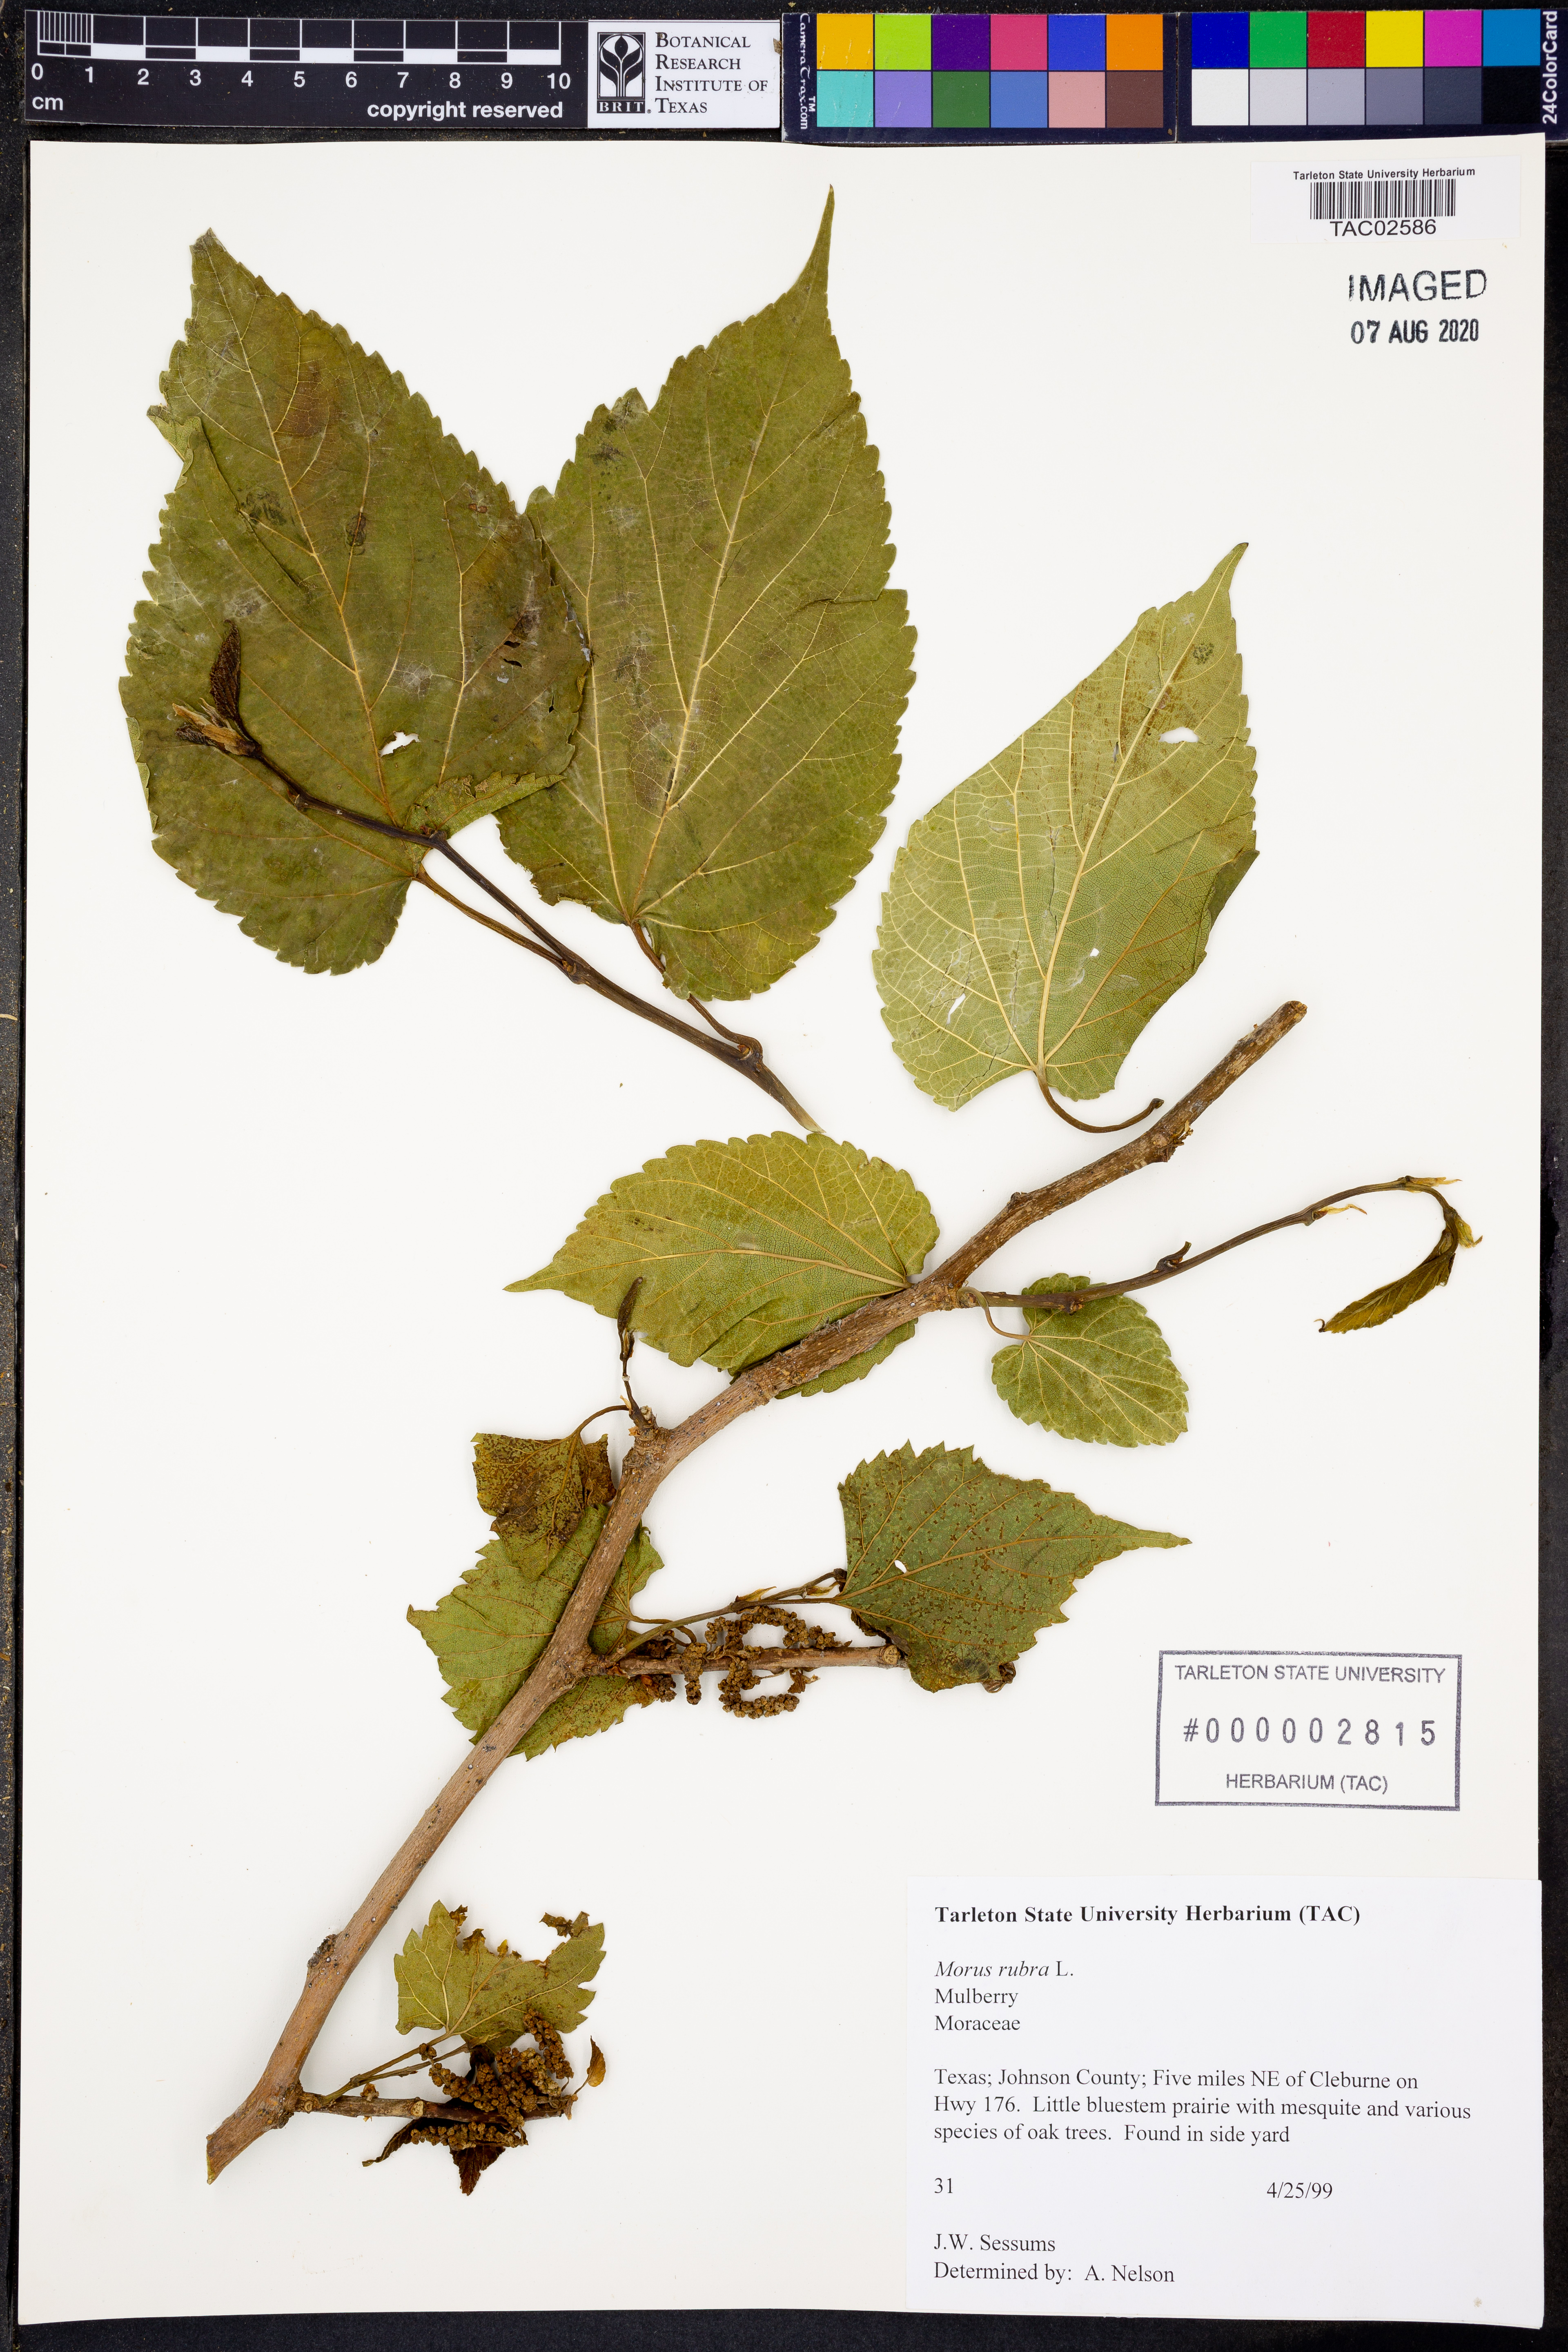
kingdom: Plantae
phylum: Tracheophyta
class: Magnoliopsida
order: Rosales
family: Moraceae
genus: Morus
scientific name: Morus rubra
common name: Red mulberry
